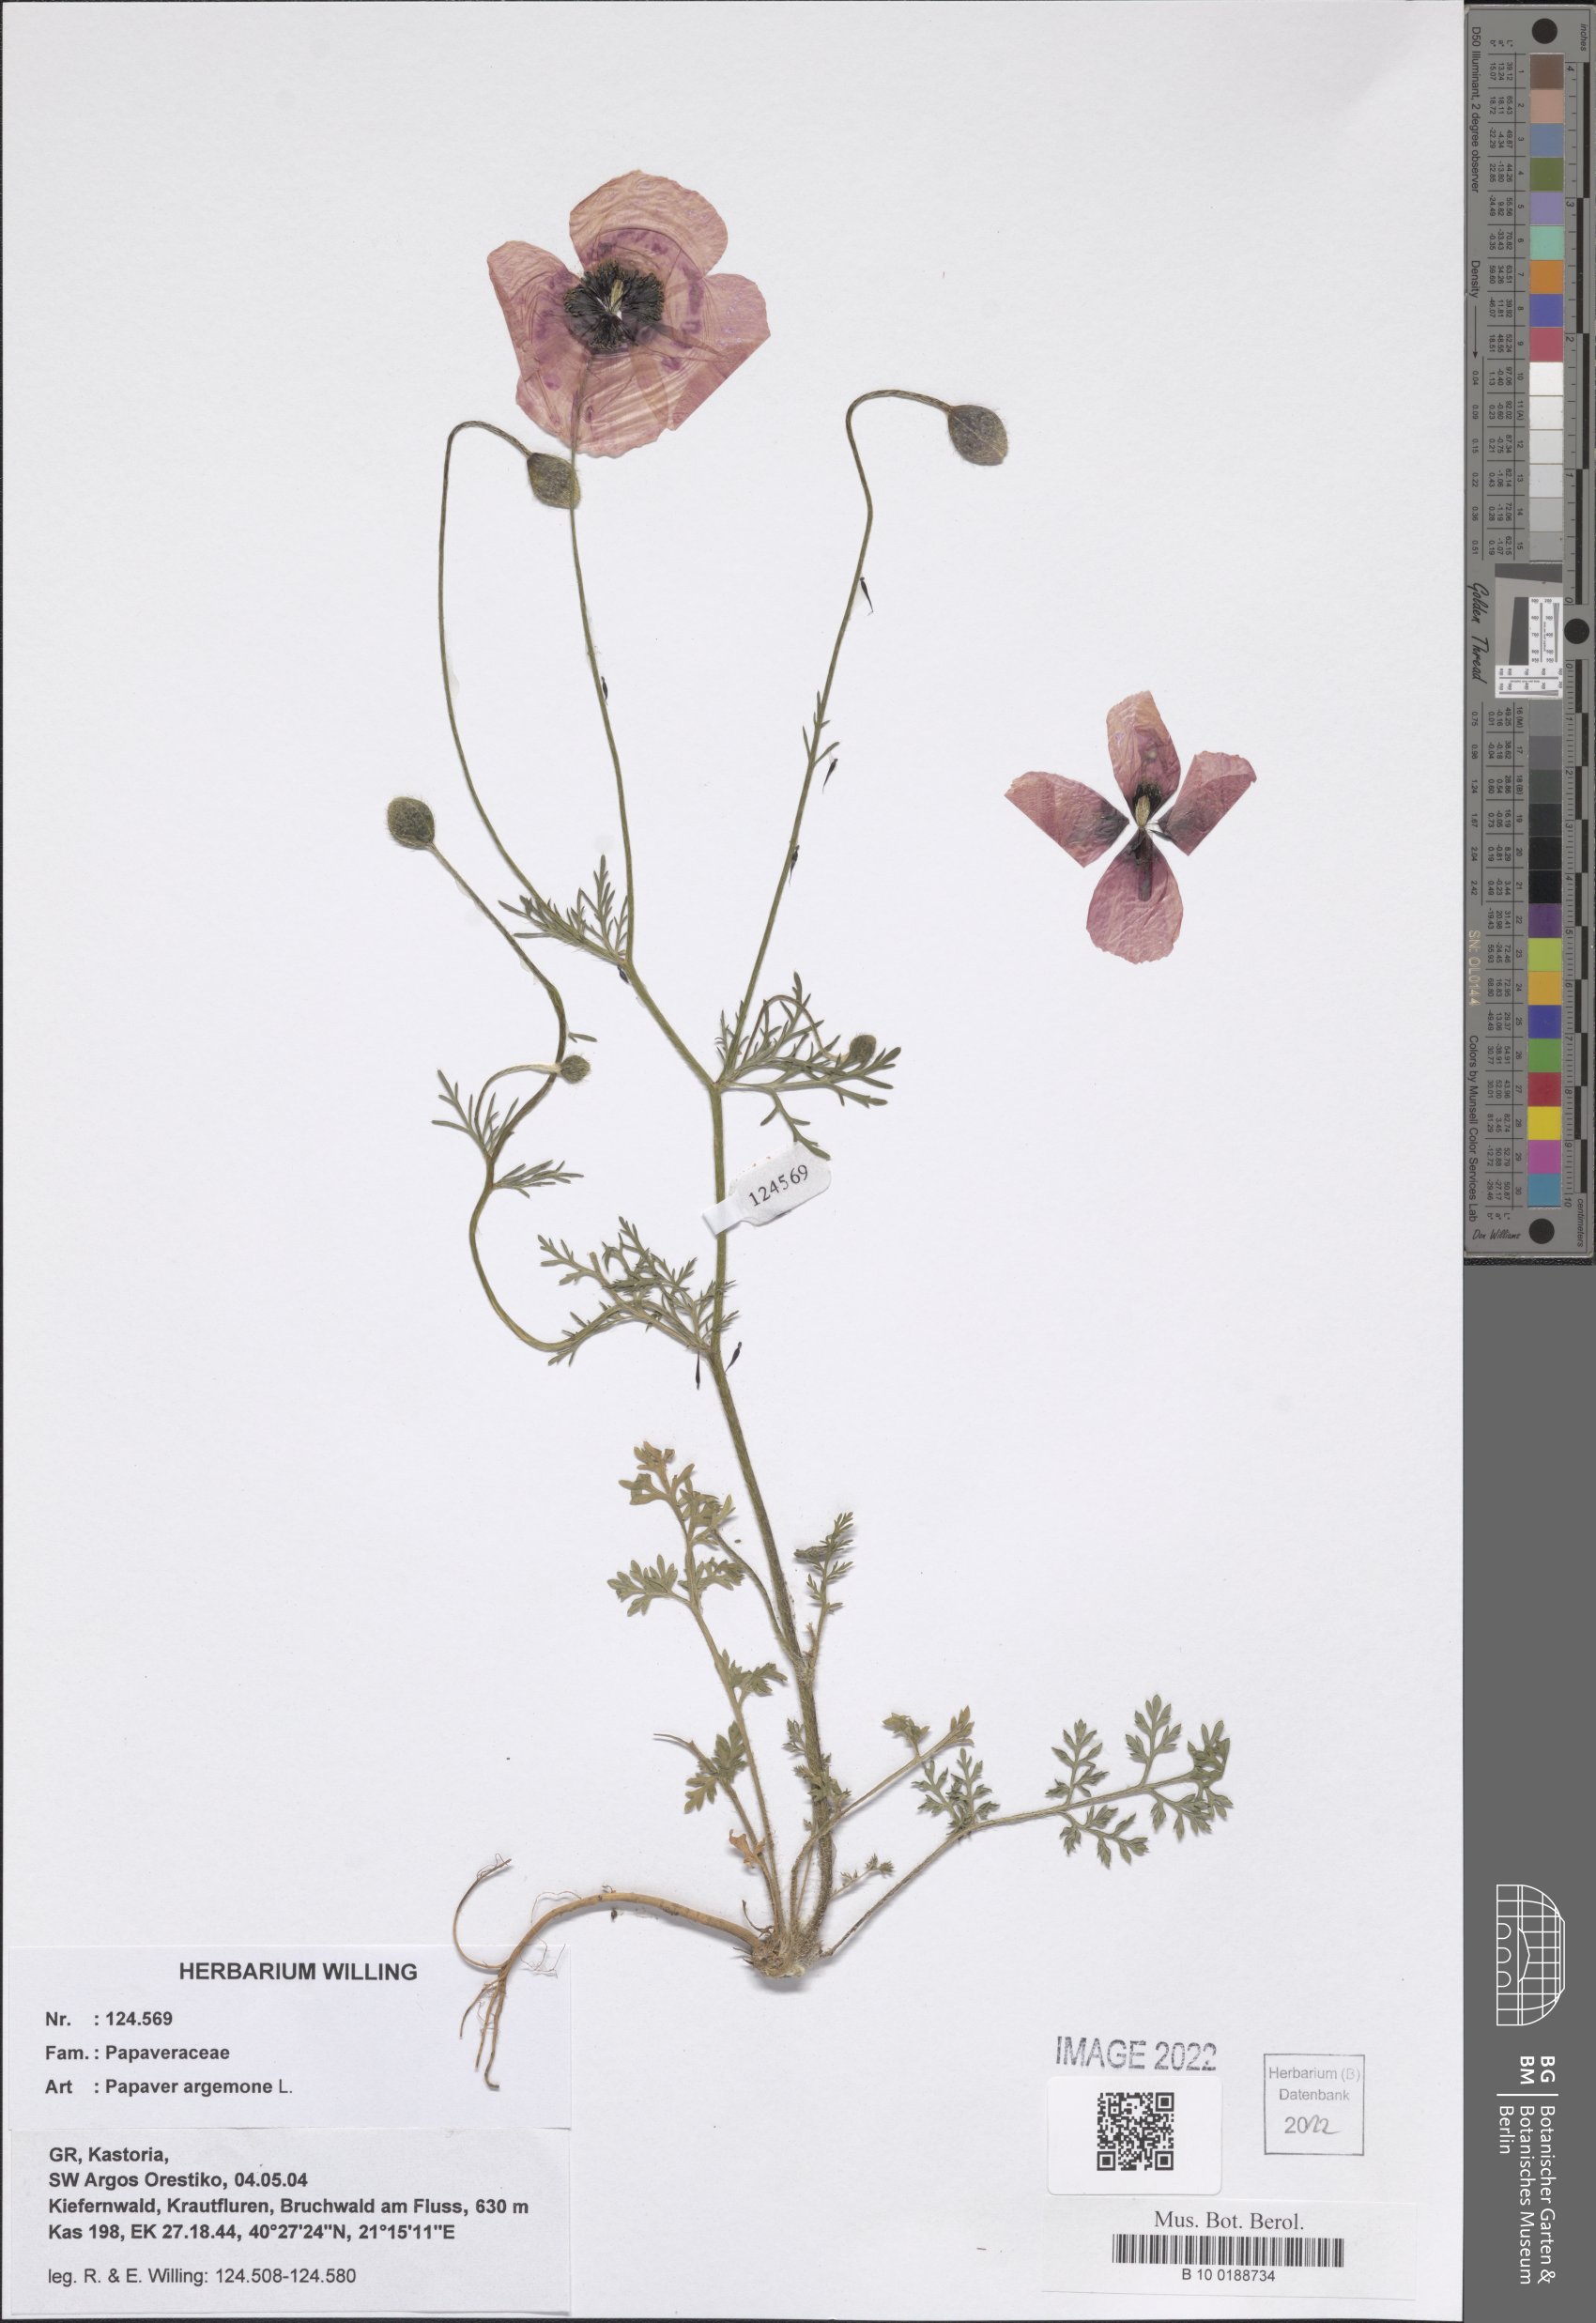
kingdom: Plantae
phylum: Tracheophyta
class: Magnoliopsida
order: Ranunculales
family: Papaveraceae
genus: Roemeria
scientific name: Roemeria argemone
